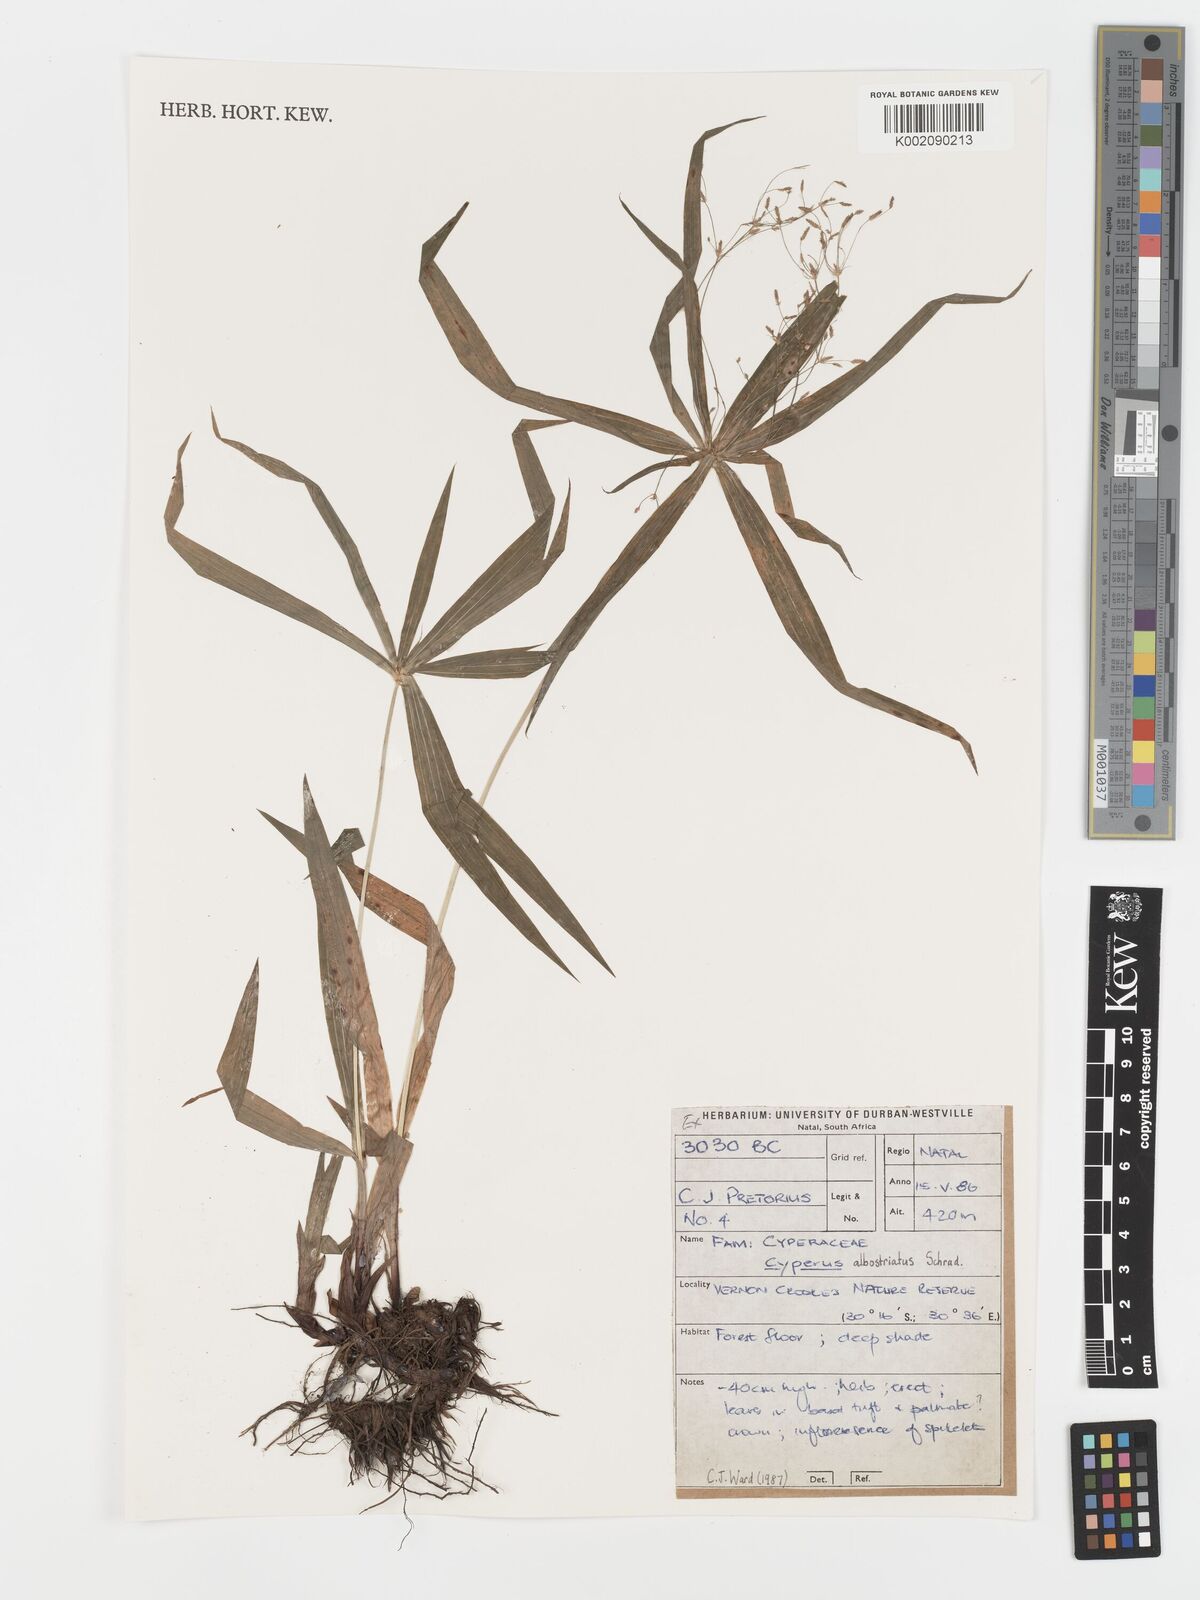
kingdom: Plantae
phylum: Tracheophyta
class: Liliopsida
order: Poales
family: Cyperaceae
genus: Cyperus
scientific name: Cyperus albostriatus
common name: Dwarf umbrella-grass
